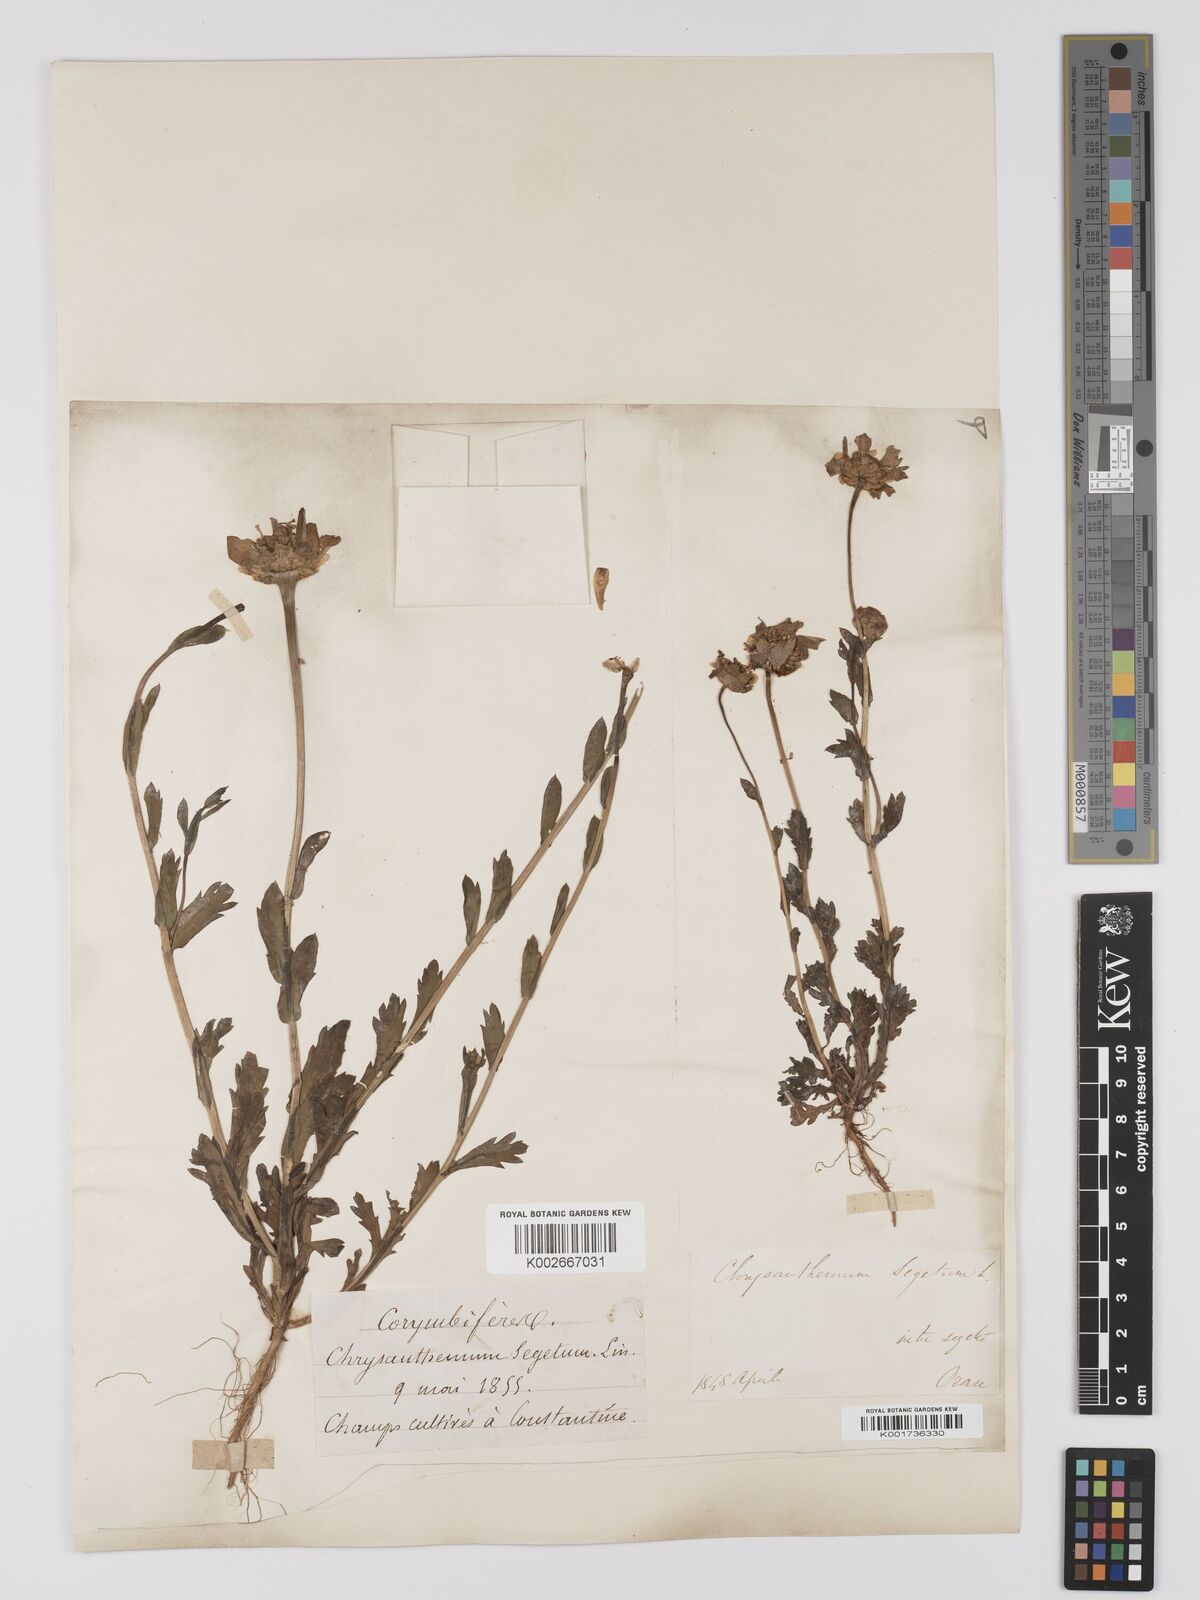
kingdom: Plantae
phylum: Tracheophyta
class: Magnoliopsida
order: Asterales
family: Asteraceae
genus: Glebionis
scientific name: Glebionis segetum
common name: Corndaisy
